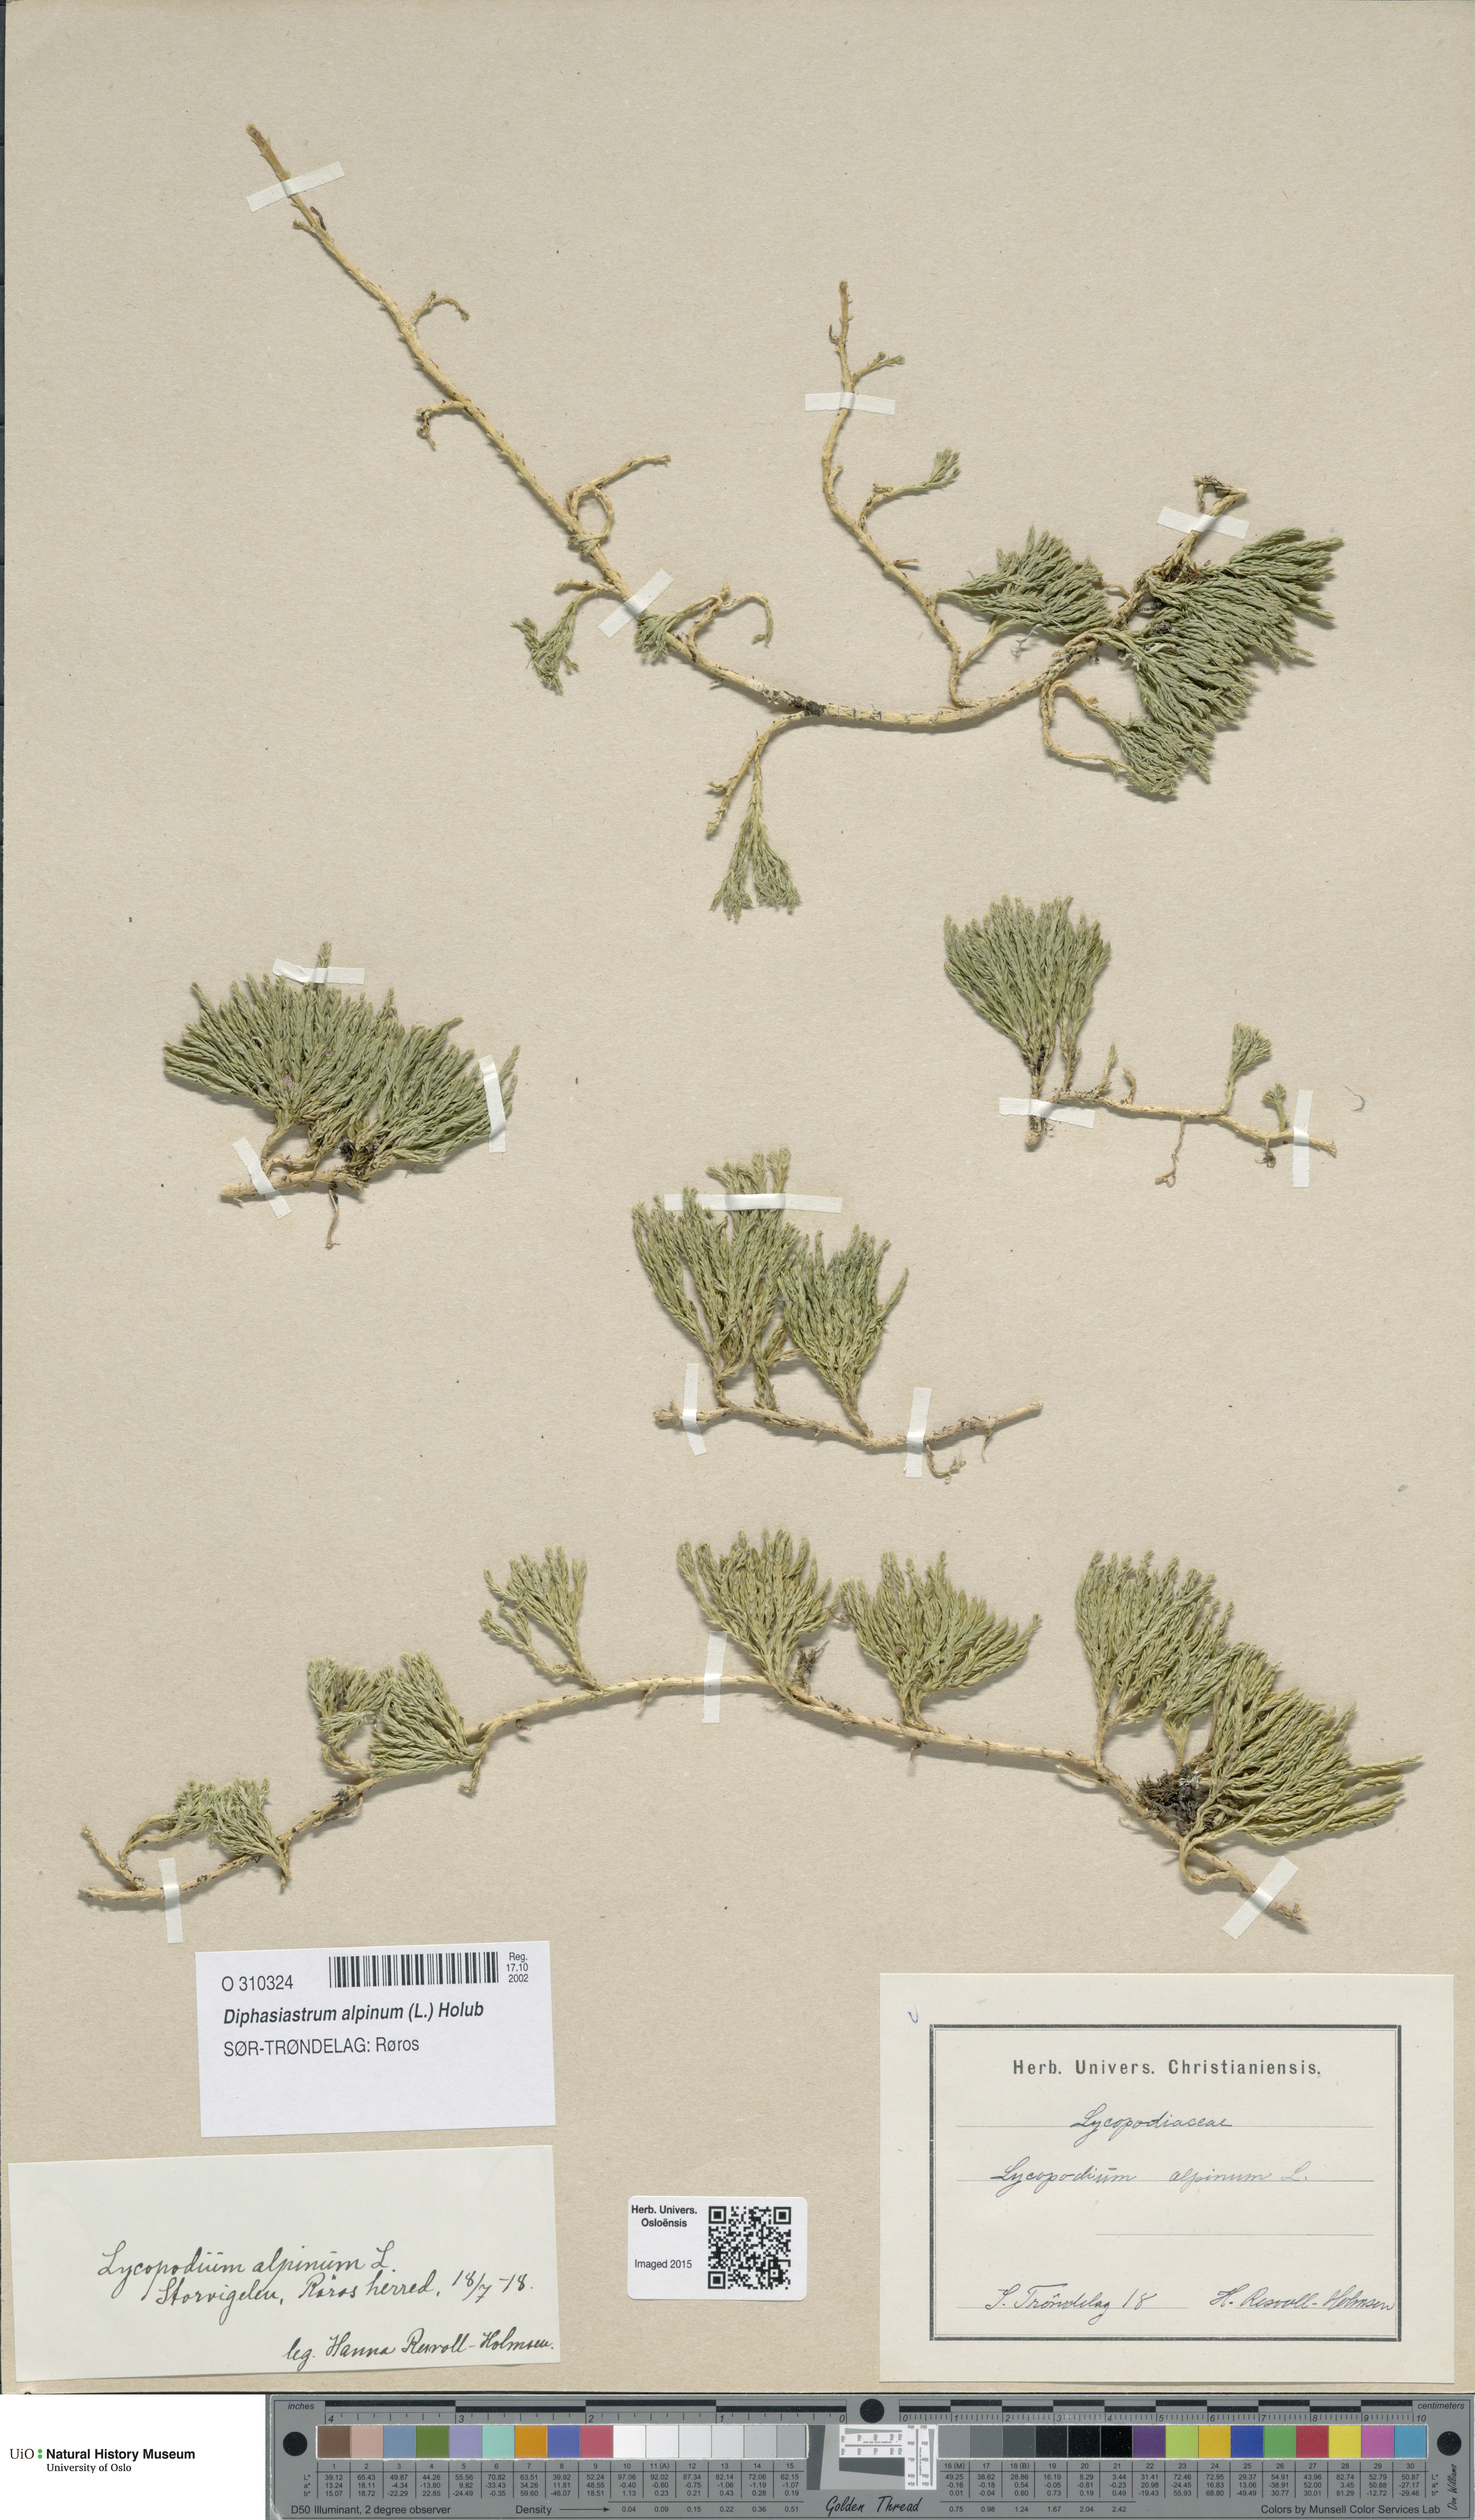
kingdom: Plantae
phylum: Tracheophyta
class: Lycopodiopsida
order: Lycopodiales
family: Lycopodiaceae
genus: Diphasiastrum
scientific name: Diphasiastrum alpinum
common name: Alpine clubmoss
